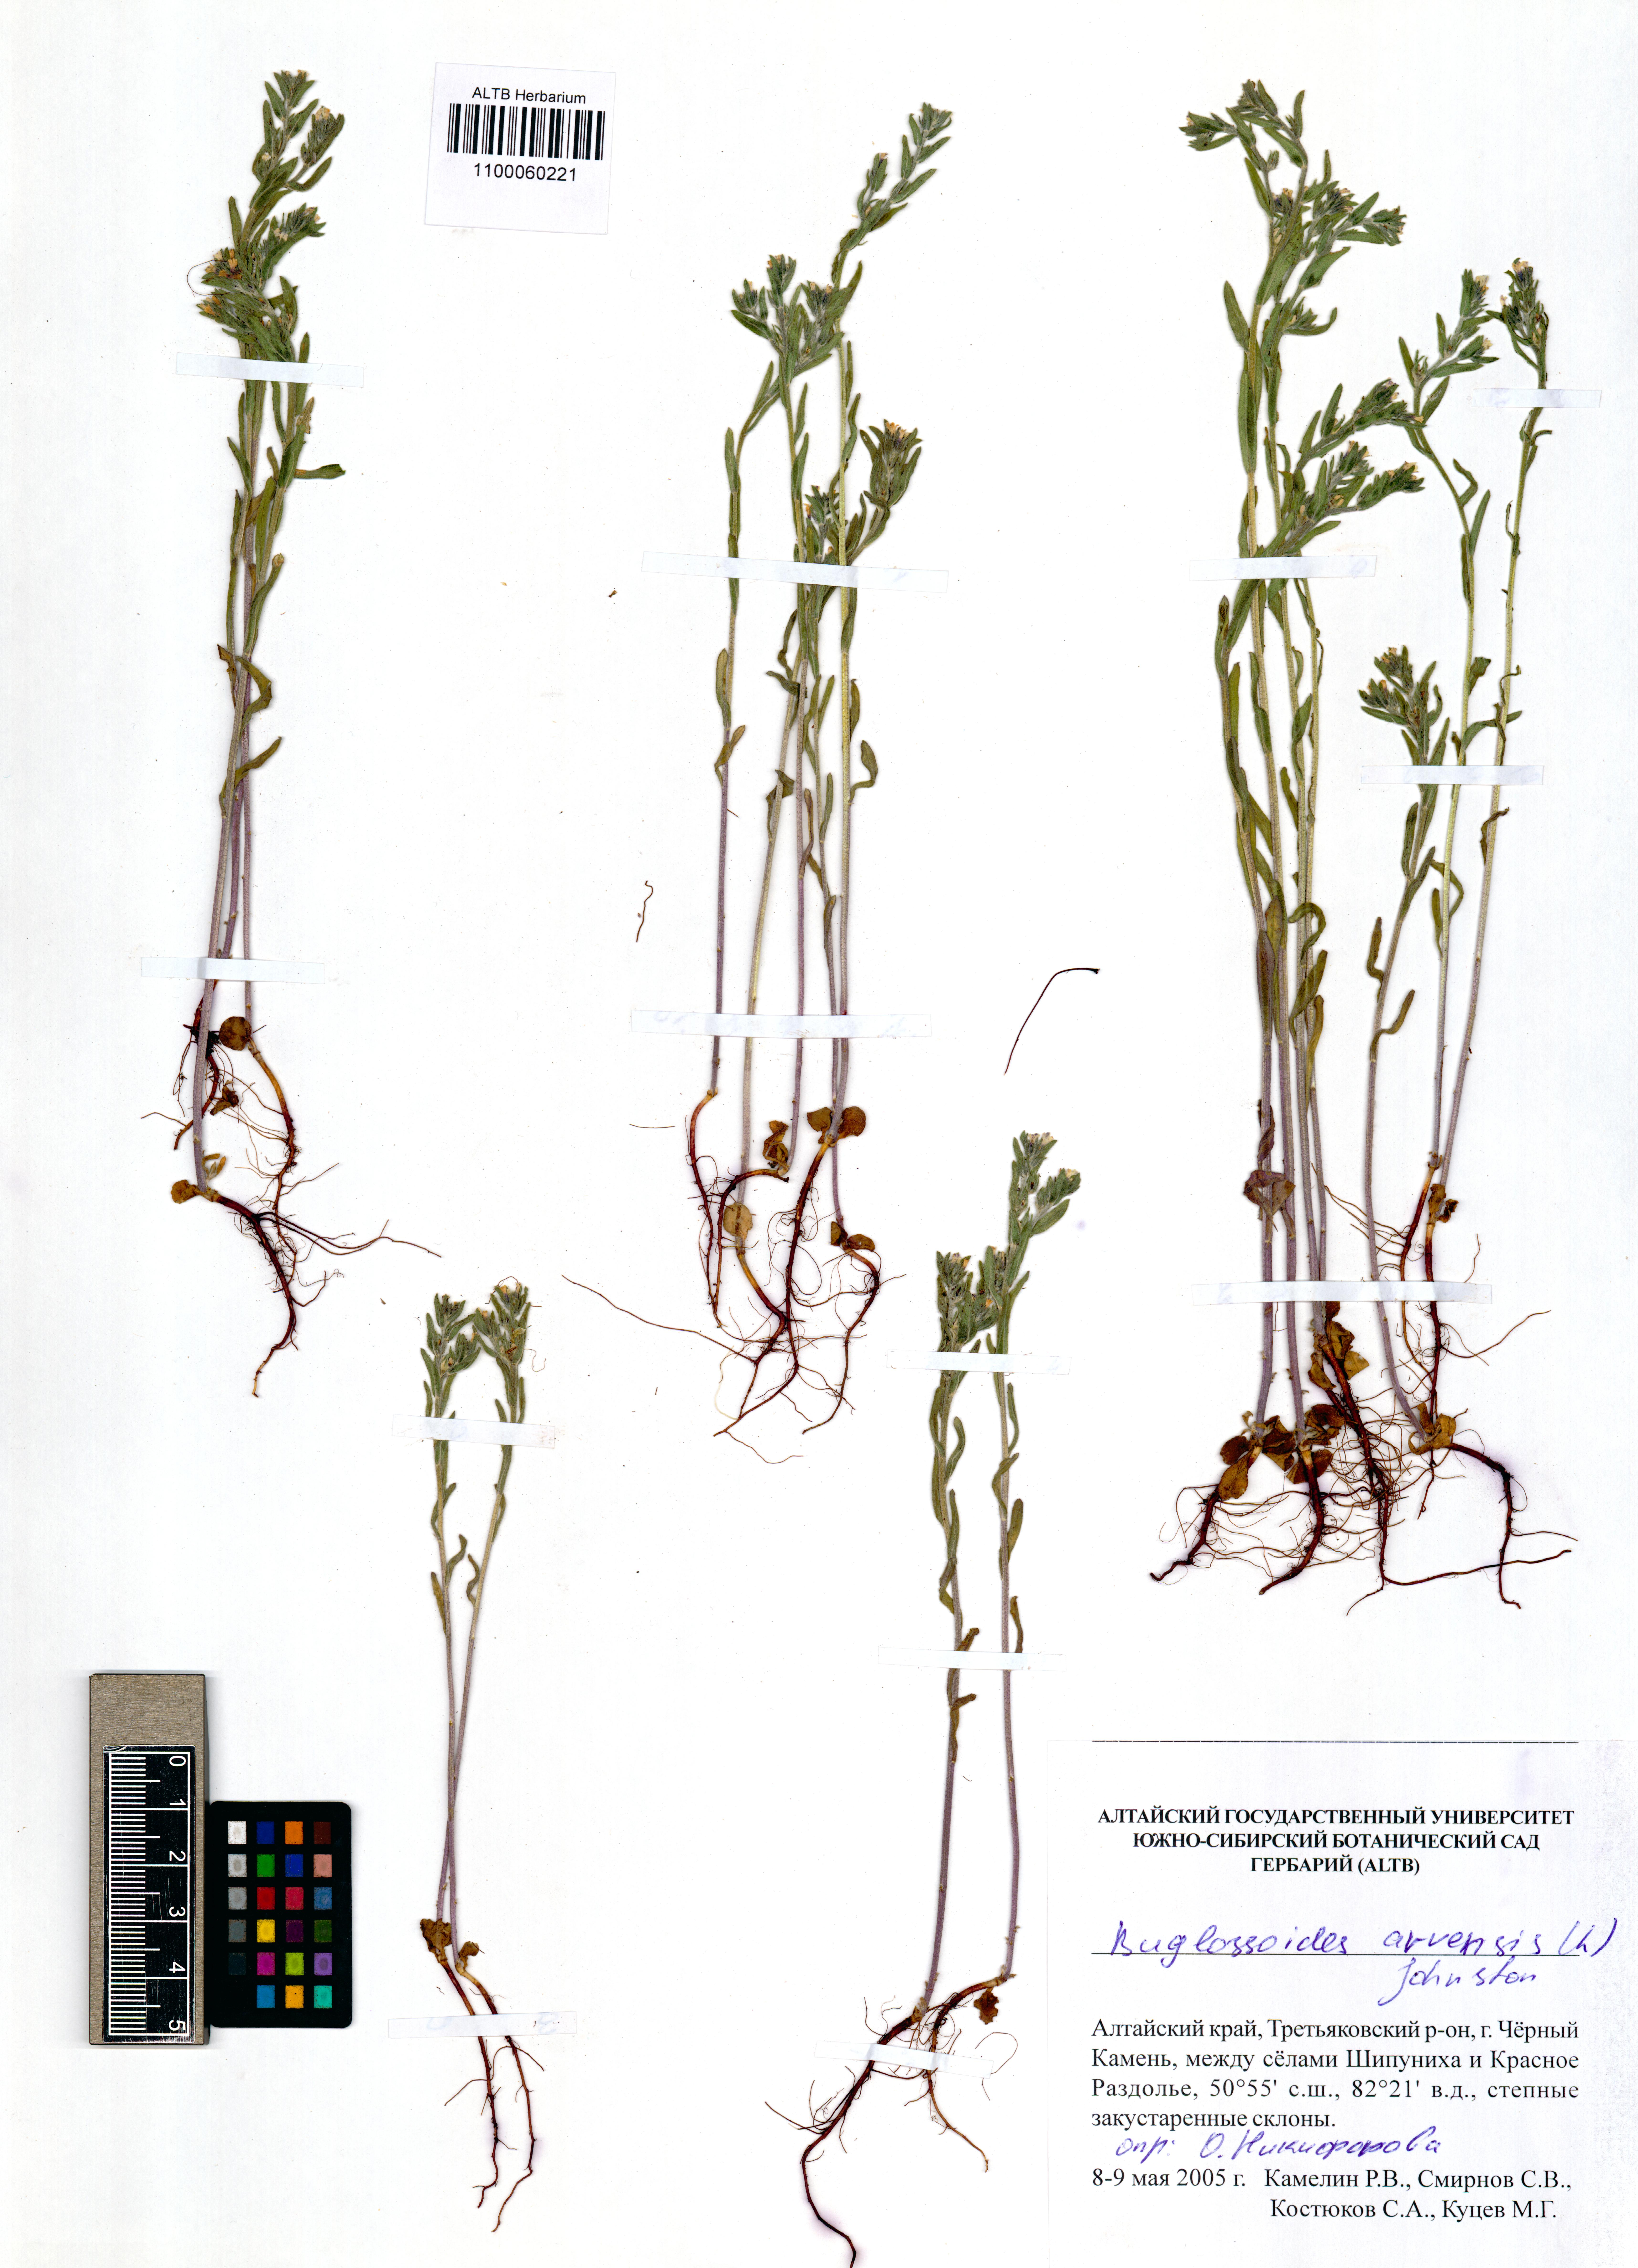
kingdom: Plantae
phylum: Tracheophyta
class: Magnoliopsida
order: Boraginales
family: Boraginaceae
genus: Buglossoides
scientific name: Buglossoides arvensis
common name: Corn gromwell
